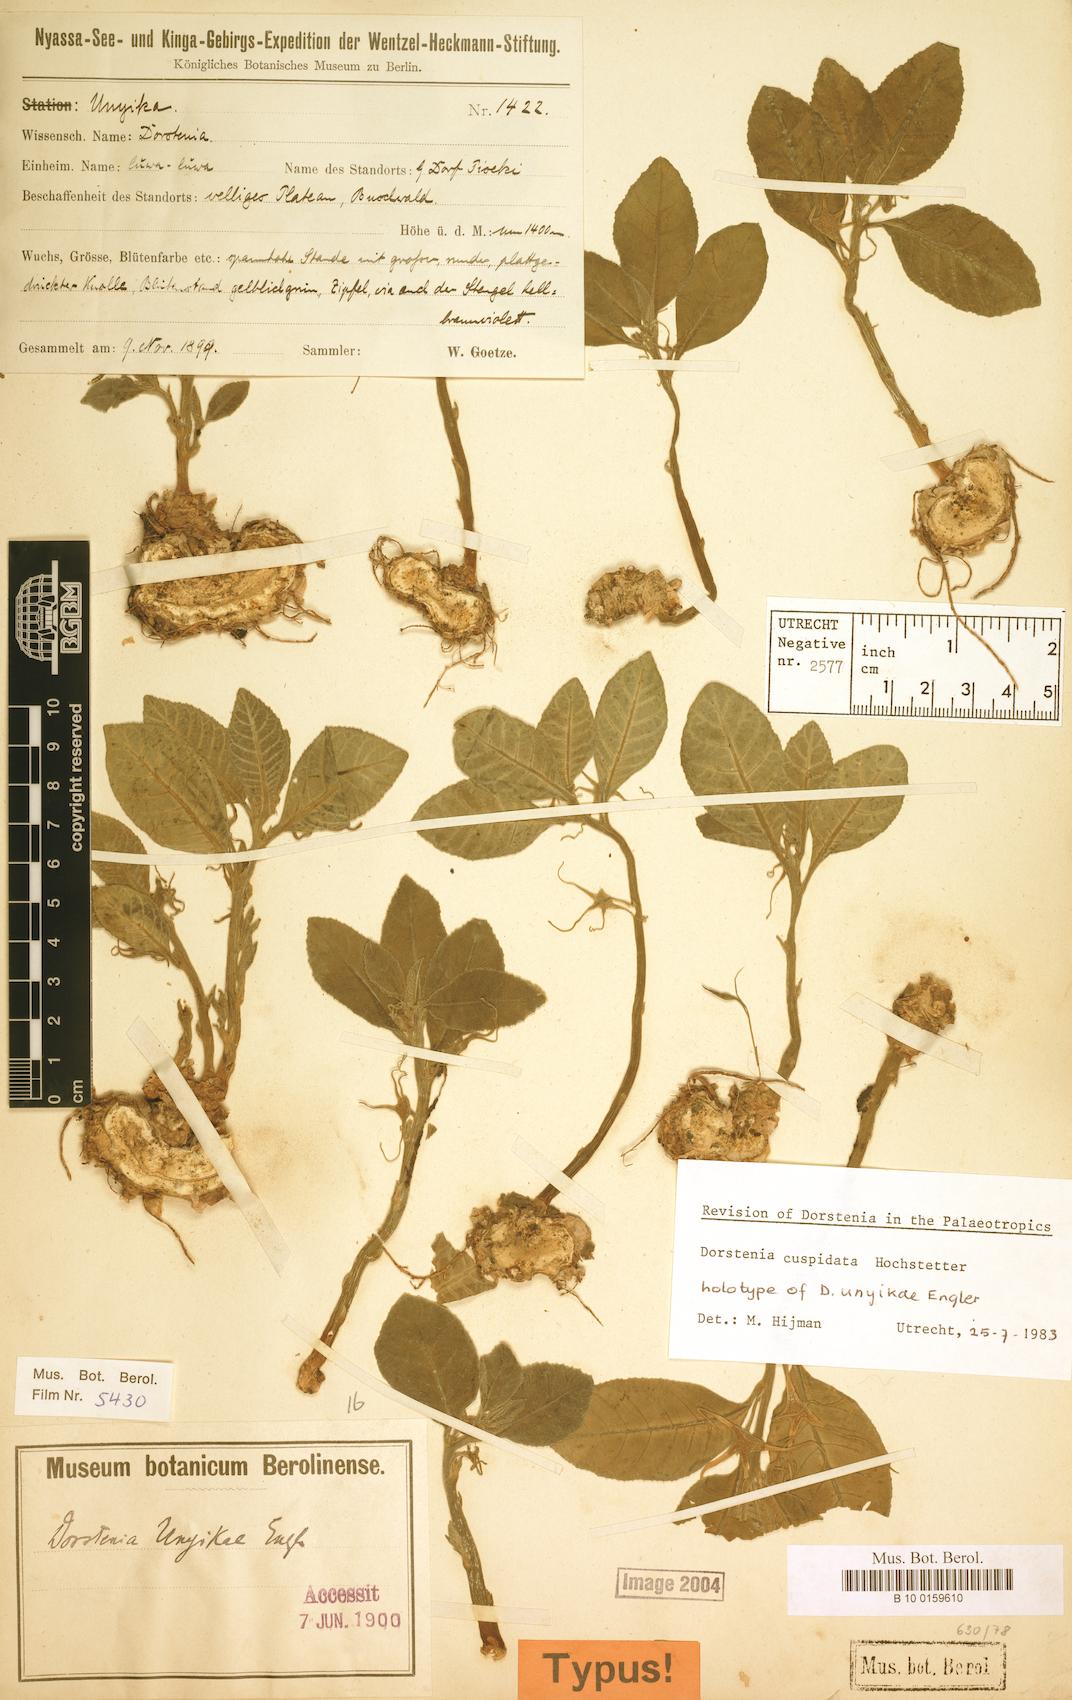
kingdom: Plantae
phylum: Tracheophyta
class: Magnoliopsida
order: Rosales
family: Moraceae
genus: Dorstenia
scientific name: Dorstenia cuspidata
